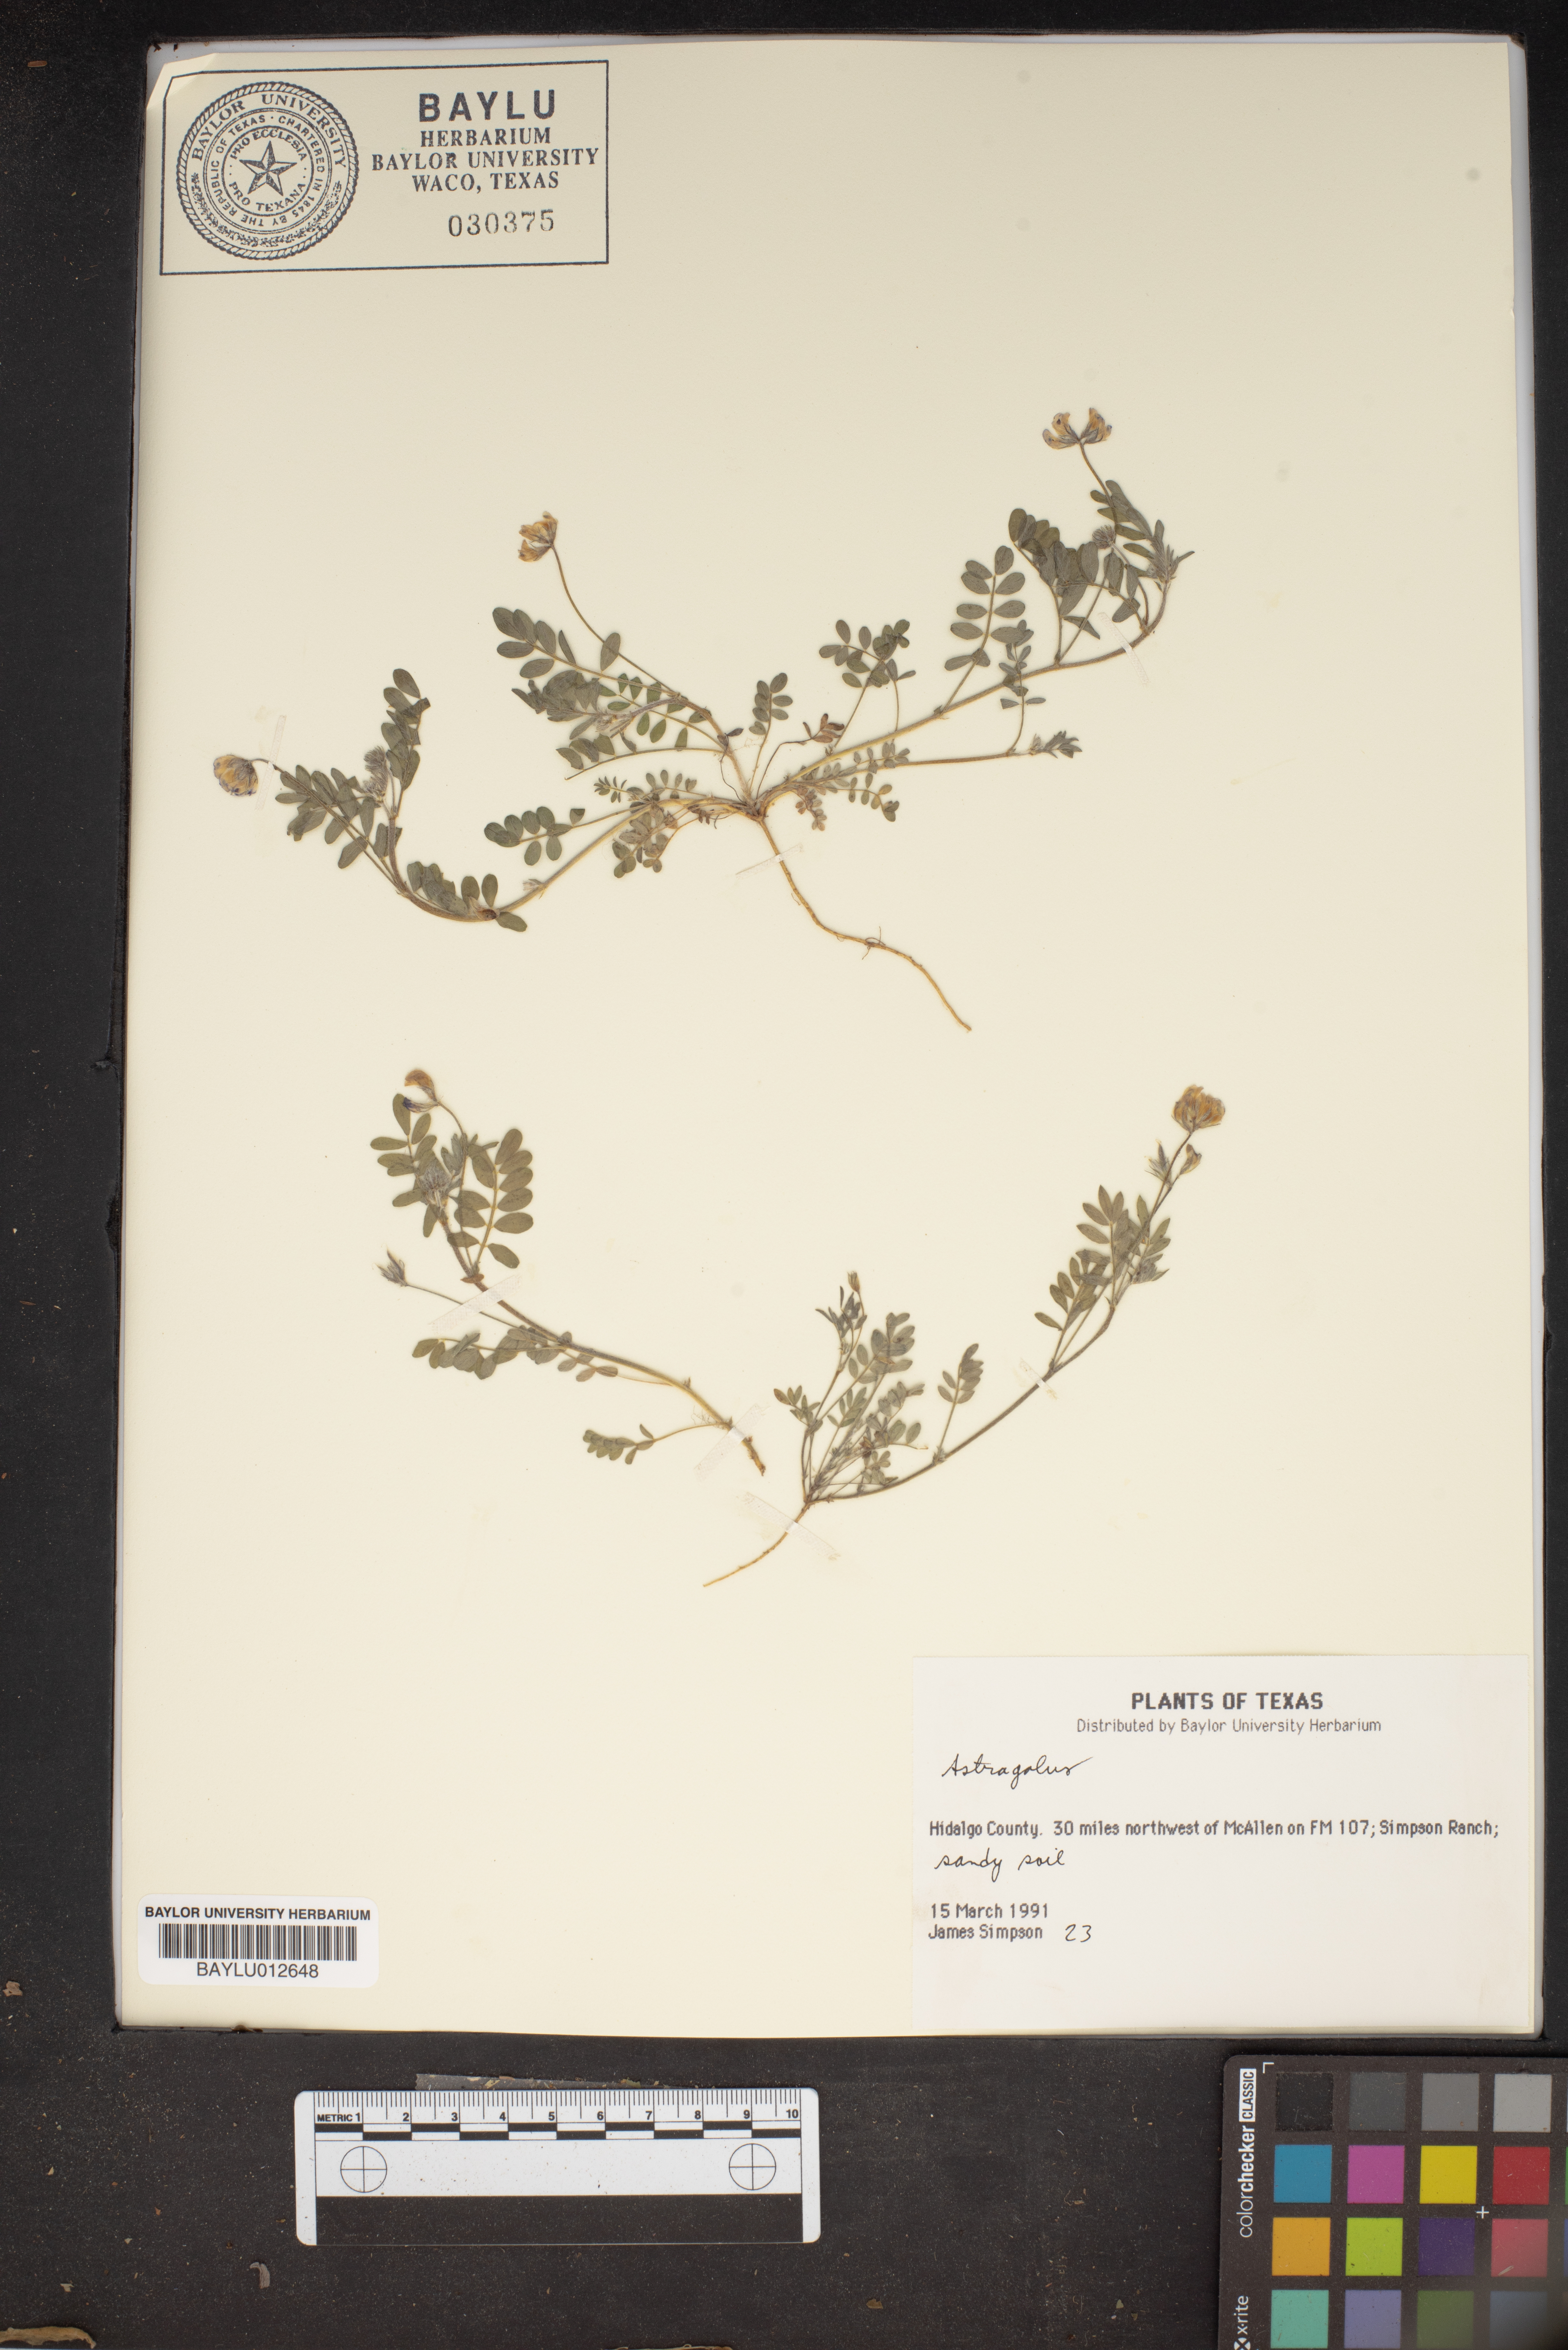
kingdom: Plantae
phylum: Tracheophyta
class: Magnoliopsida
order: Fabales
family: Fabaceae
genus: Astragalus
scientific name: Astragalus
